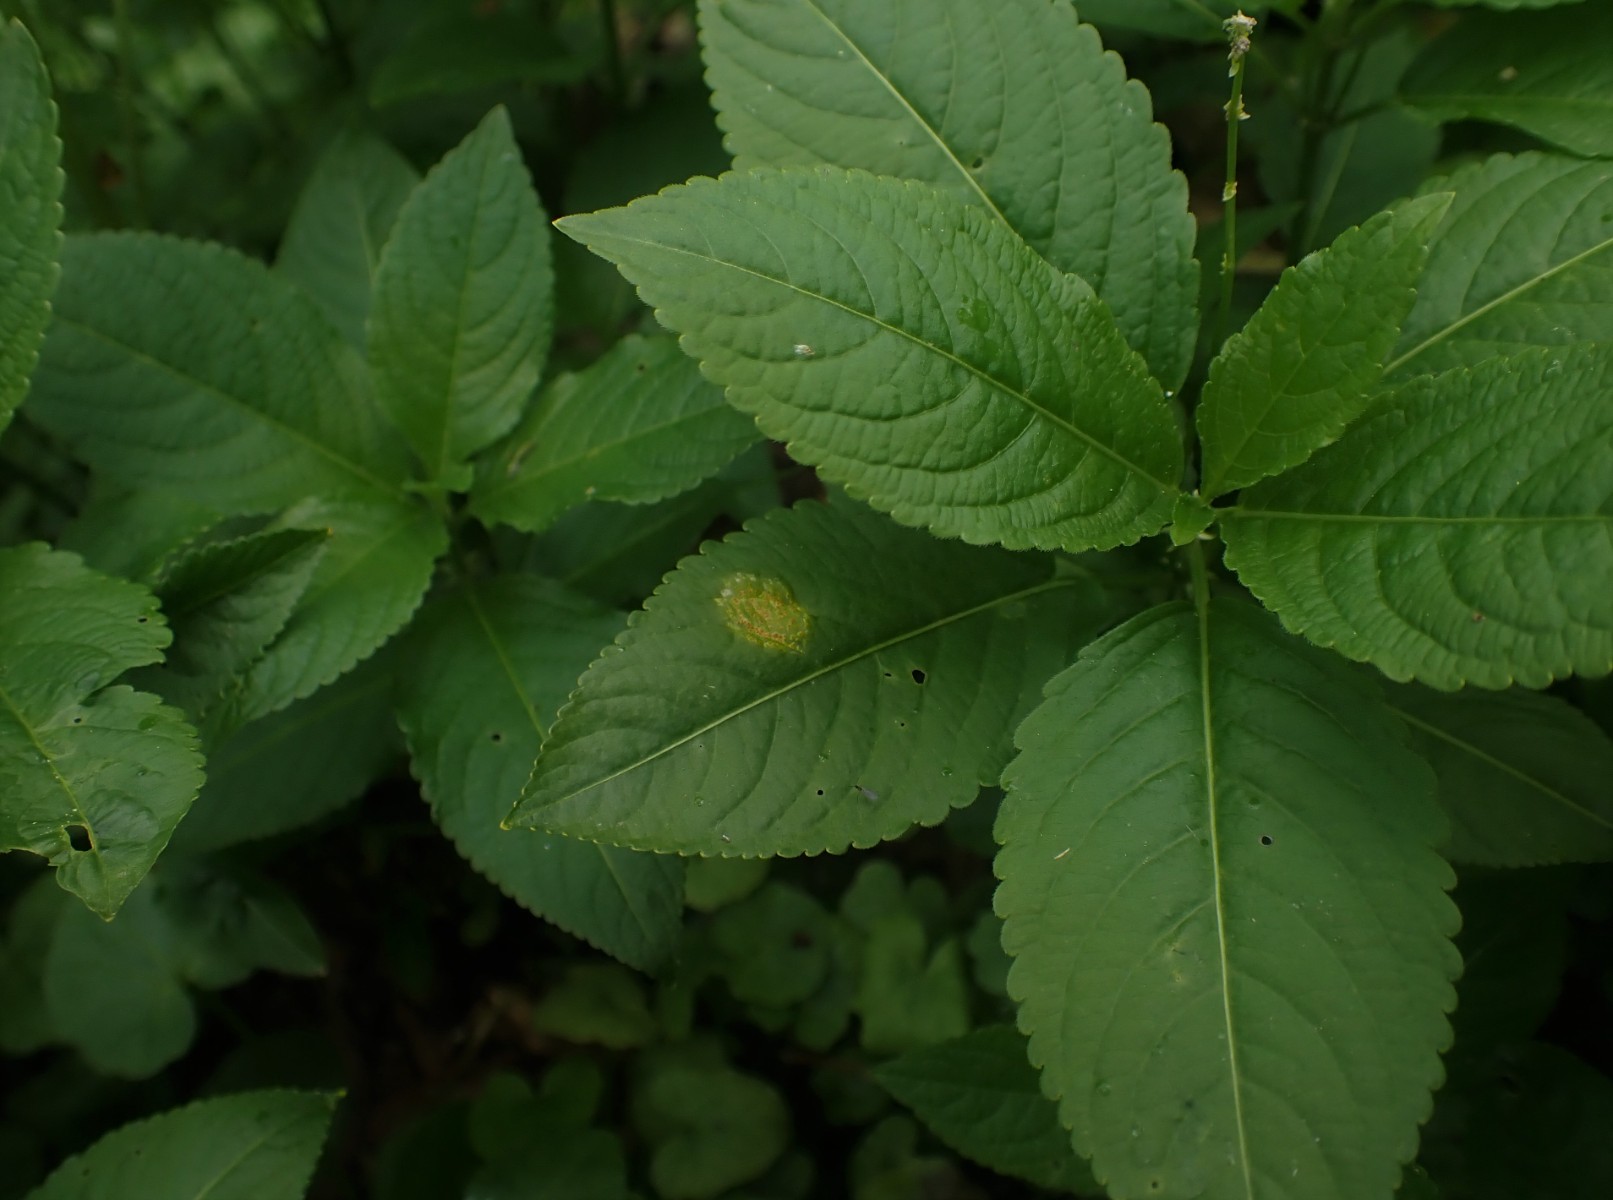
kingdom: Fungi
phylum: Basidiomycota
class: Pucciniomycetes
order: Pucciniales
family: Melampsoraceae
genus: Melampsora
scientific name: Melampsora populnea
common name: poppel-skorperust
